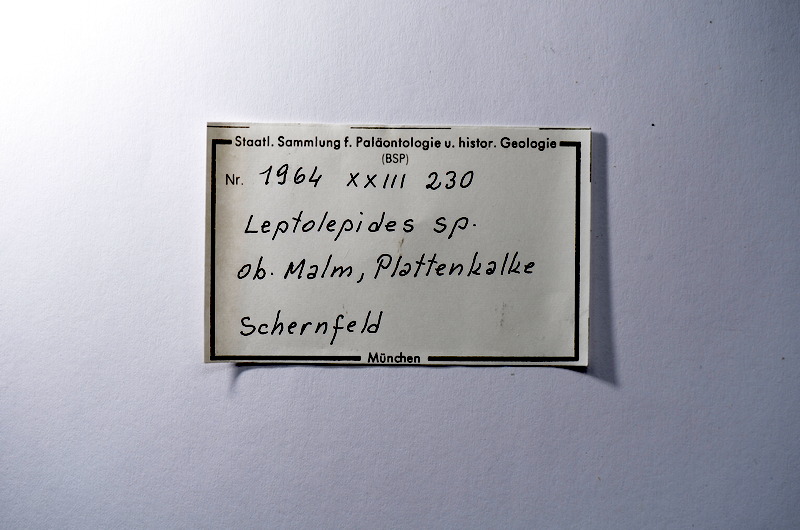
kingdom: Animalia
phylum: Chordata
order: Salmoniformes
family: Orthogonikleithridae
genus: Leptolepides
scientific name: Leptolepides
